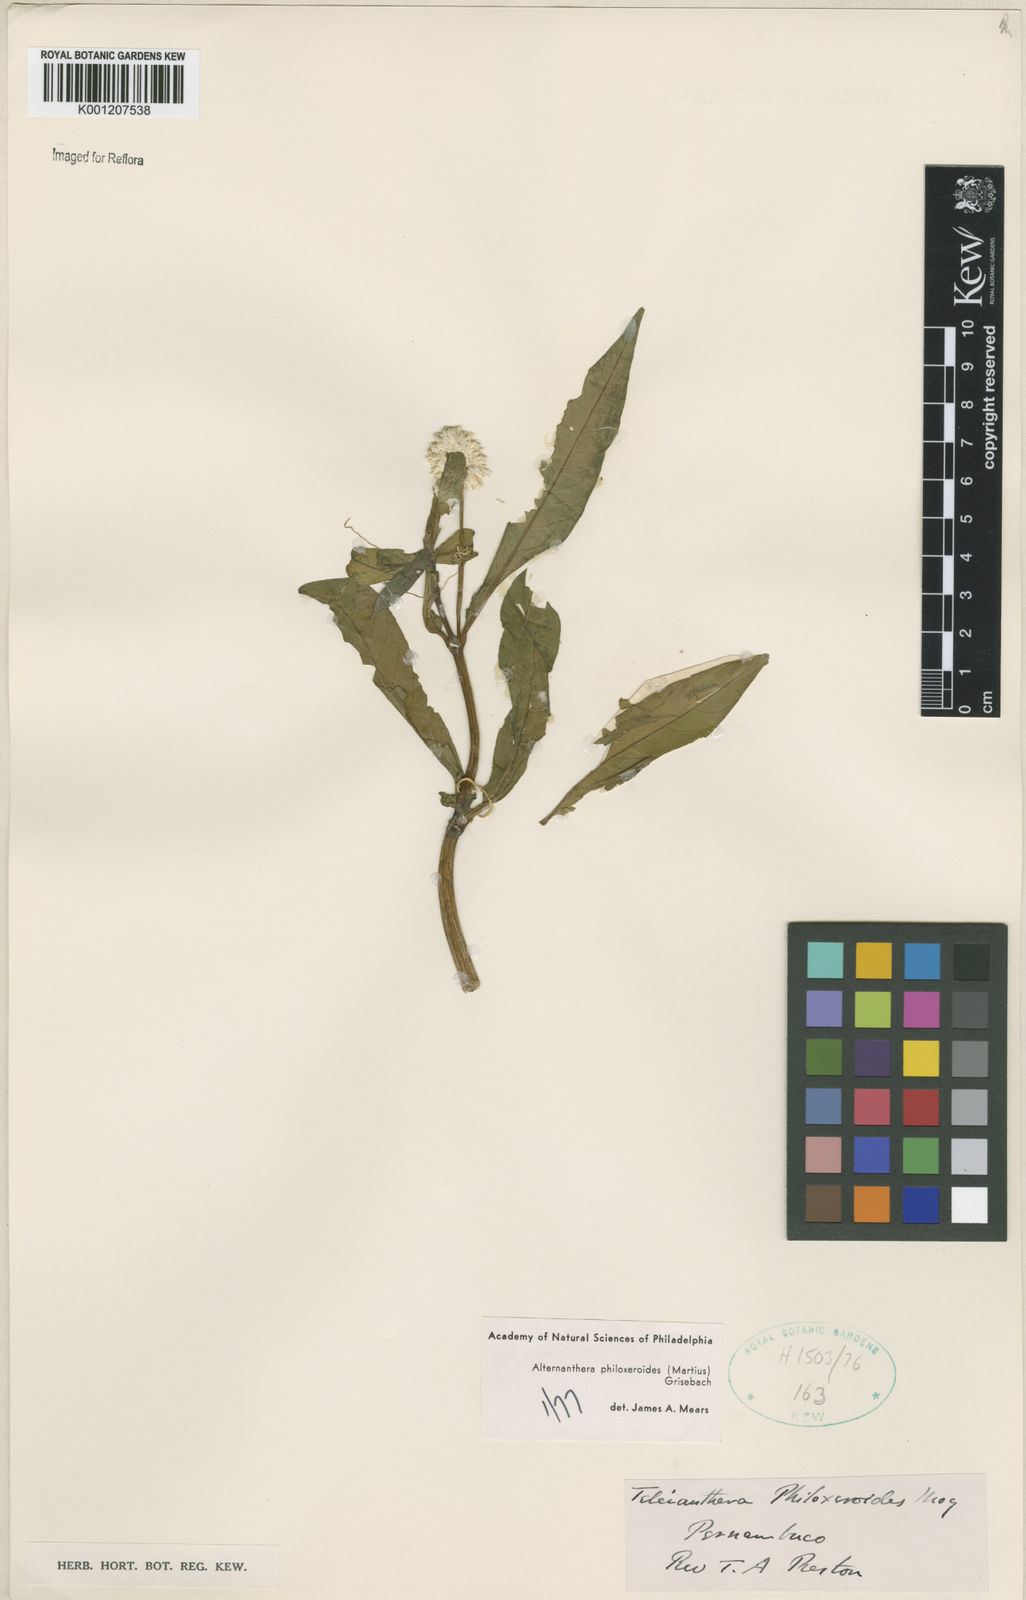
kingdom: Plantae
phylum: Tracheophyta
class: Magnoliopsida
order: Caryophyllales
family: Amaranthaceae
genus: Alternanthera
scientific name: Alternanthera philoxeroides
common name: Alligatorweed
